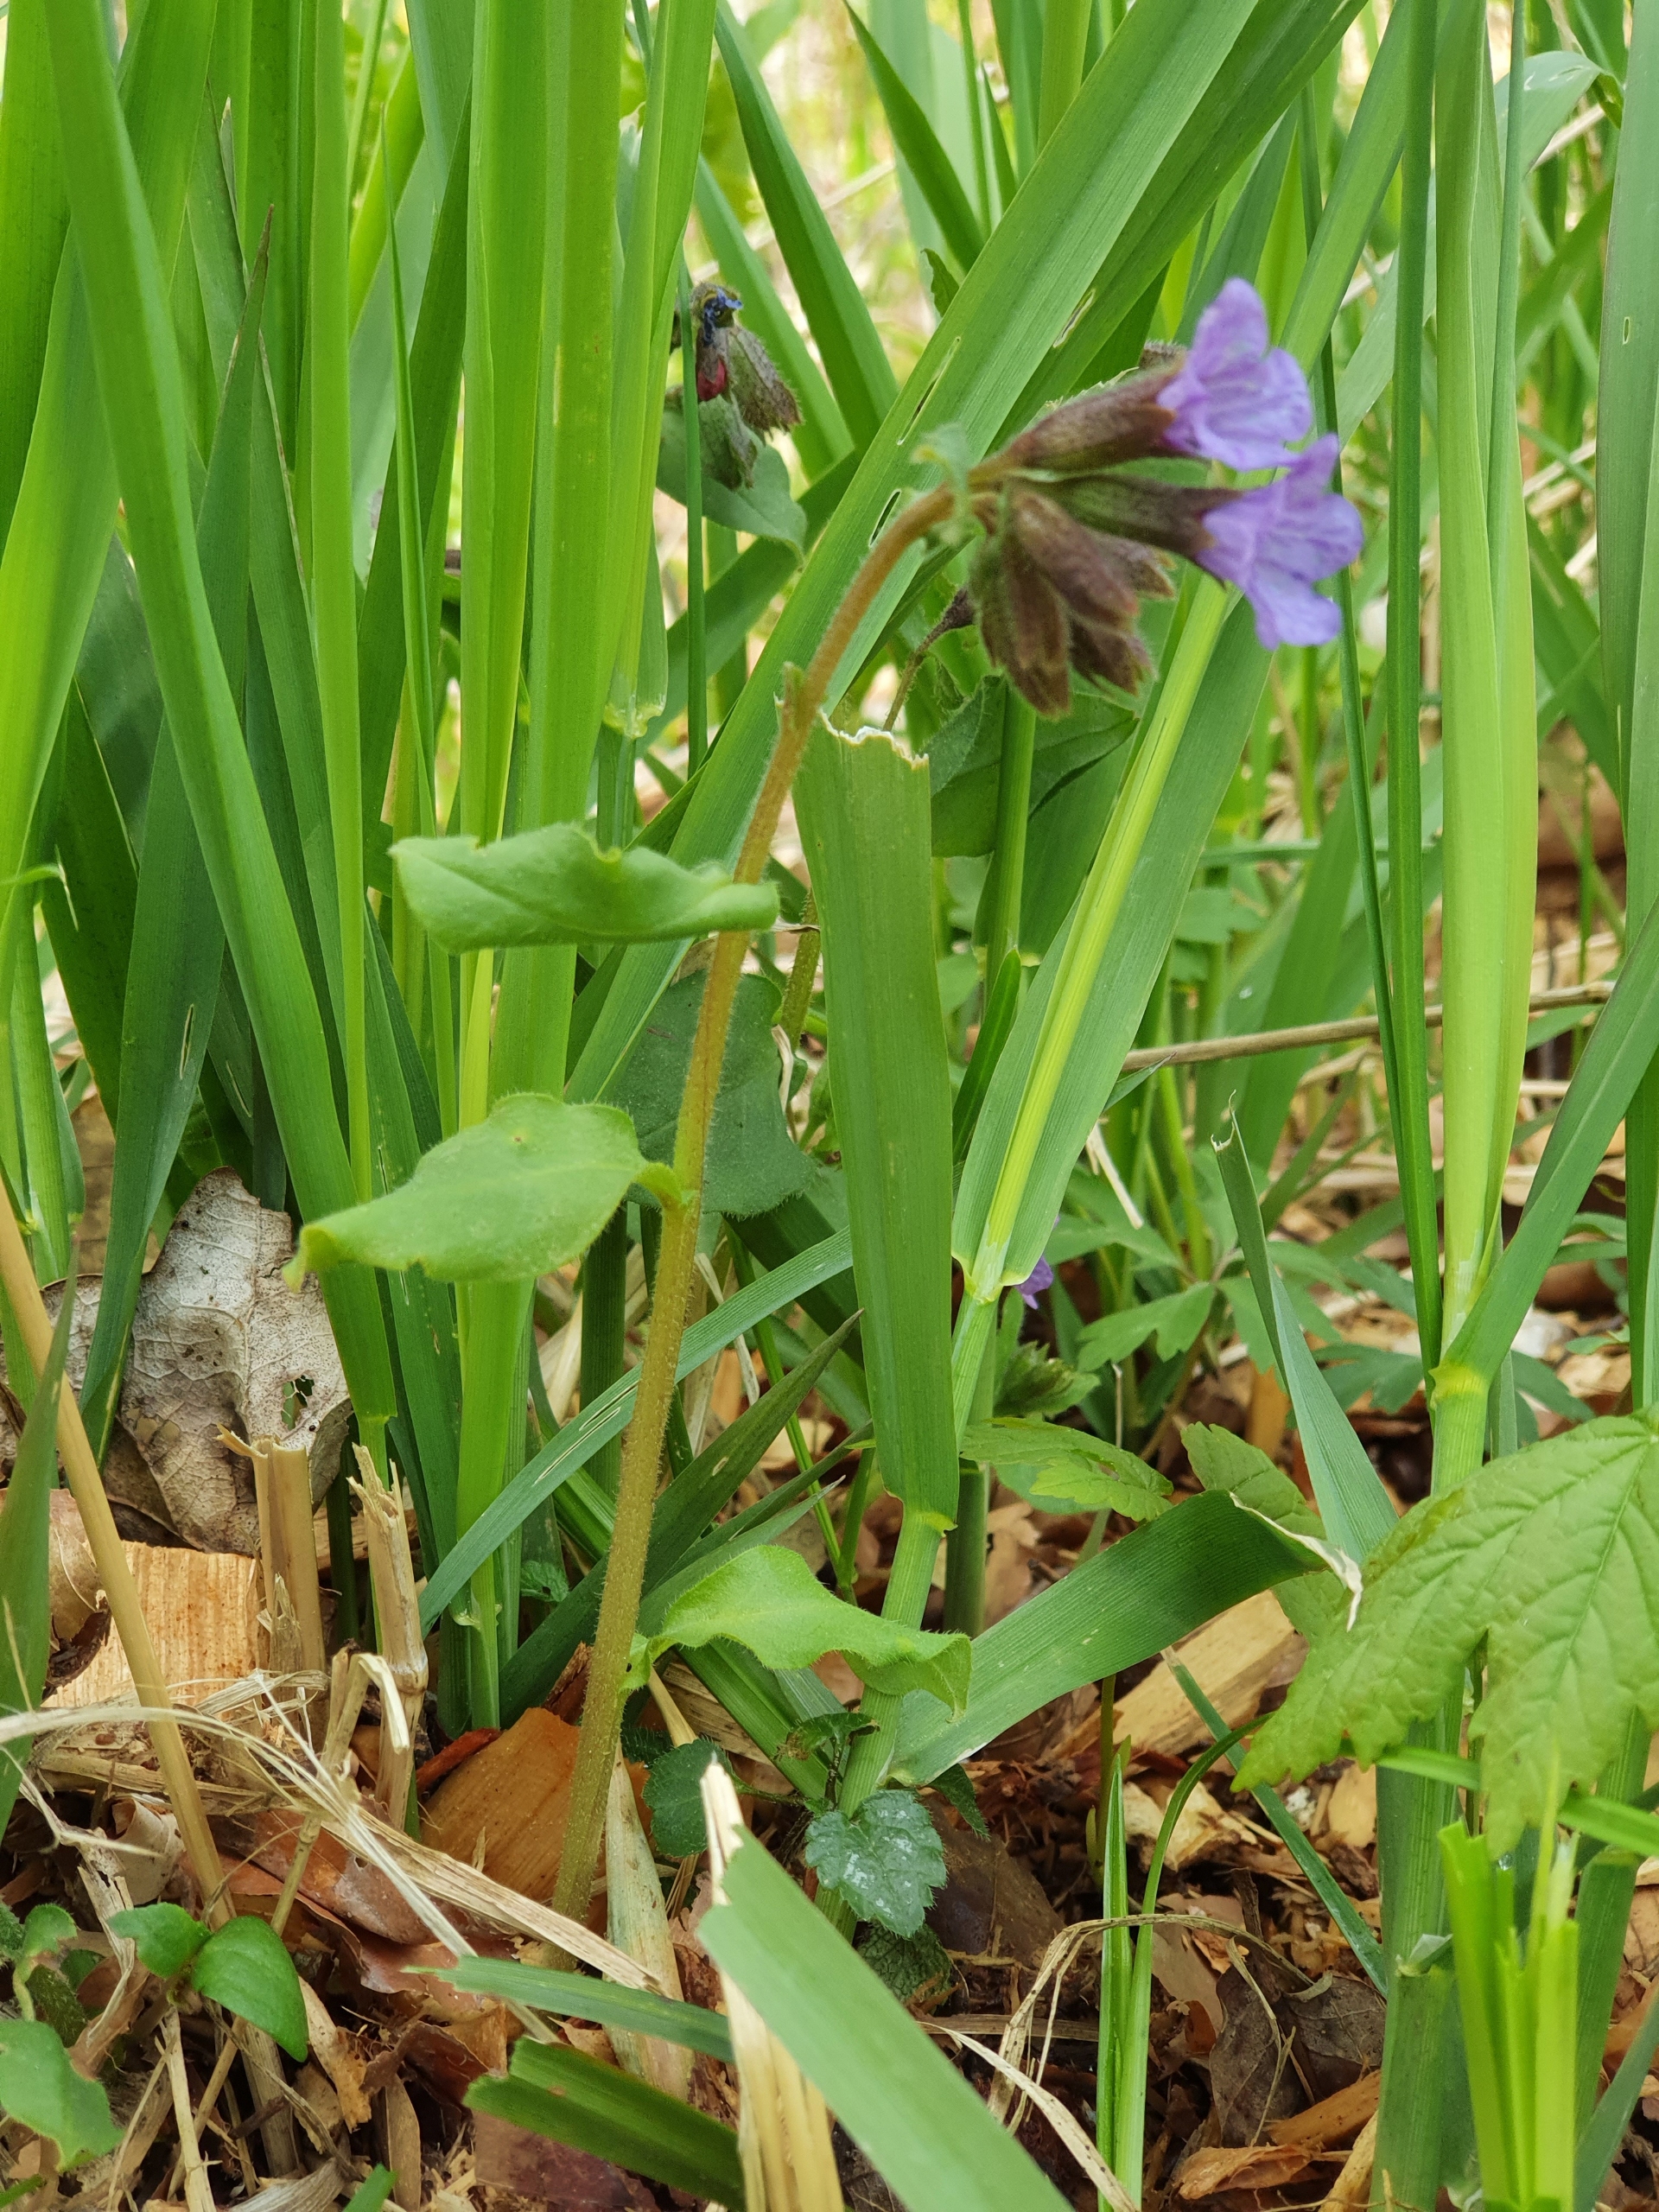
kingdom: Plantae
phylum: Tracheophyta
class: Magnoliopsida
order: Boraginales
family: Boraginaceae
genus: Pulmonaria
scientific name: Pulmonaria obscura
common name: Almindelig lungeurt
